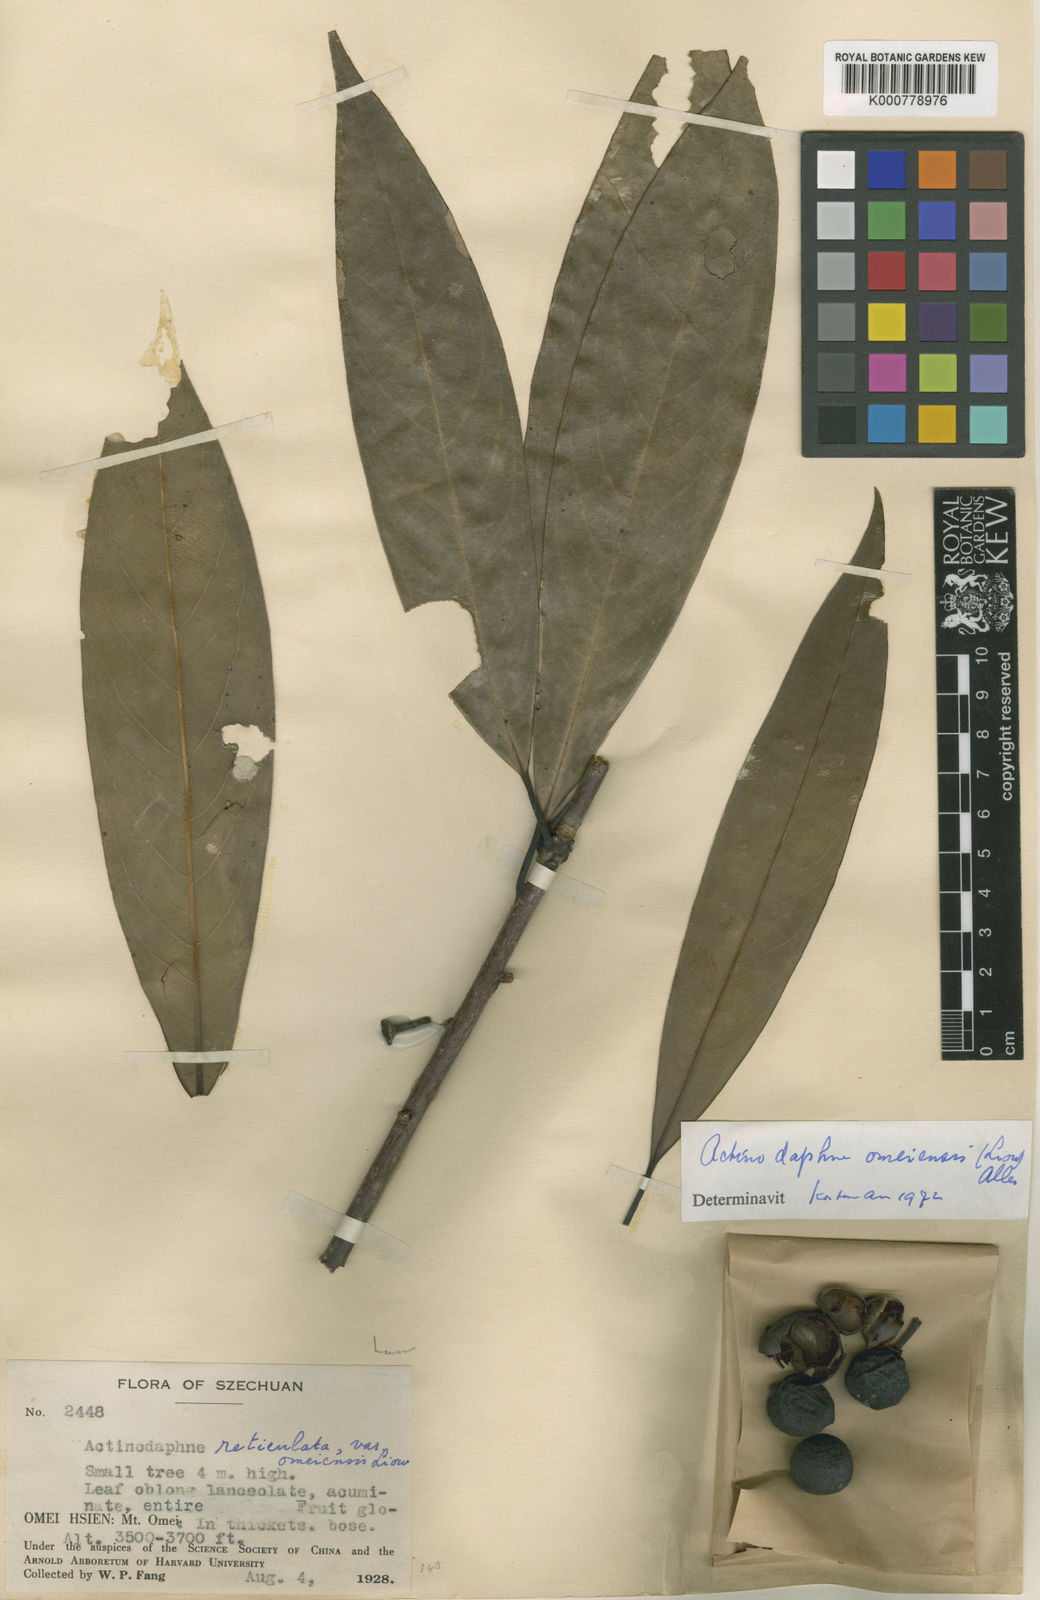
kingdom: Plantae
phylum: Tracheophyta
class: Magnoliopsida
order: Laurales
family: Lauraceae
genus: Actinodaphne
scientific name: Actinodaphne omeiensis
